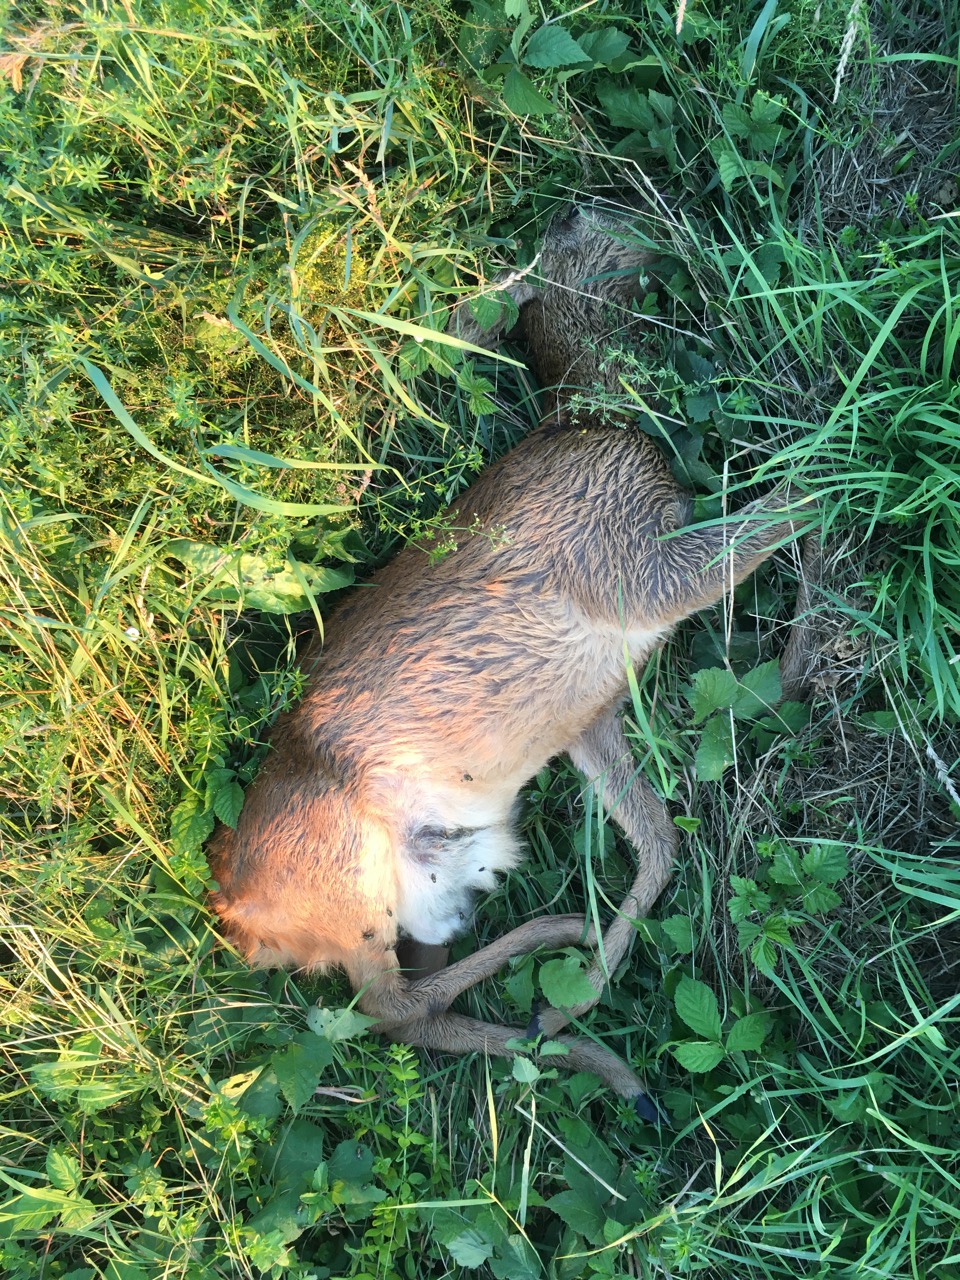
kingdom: Animalia
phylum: Chordata
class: Mammalia
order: Artiodactyla
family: Cervidae
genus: Capreolus
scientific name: Capreolus capreolus
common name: Western roe deer
